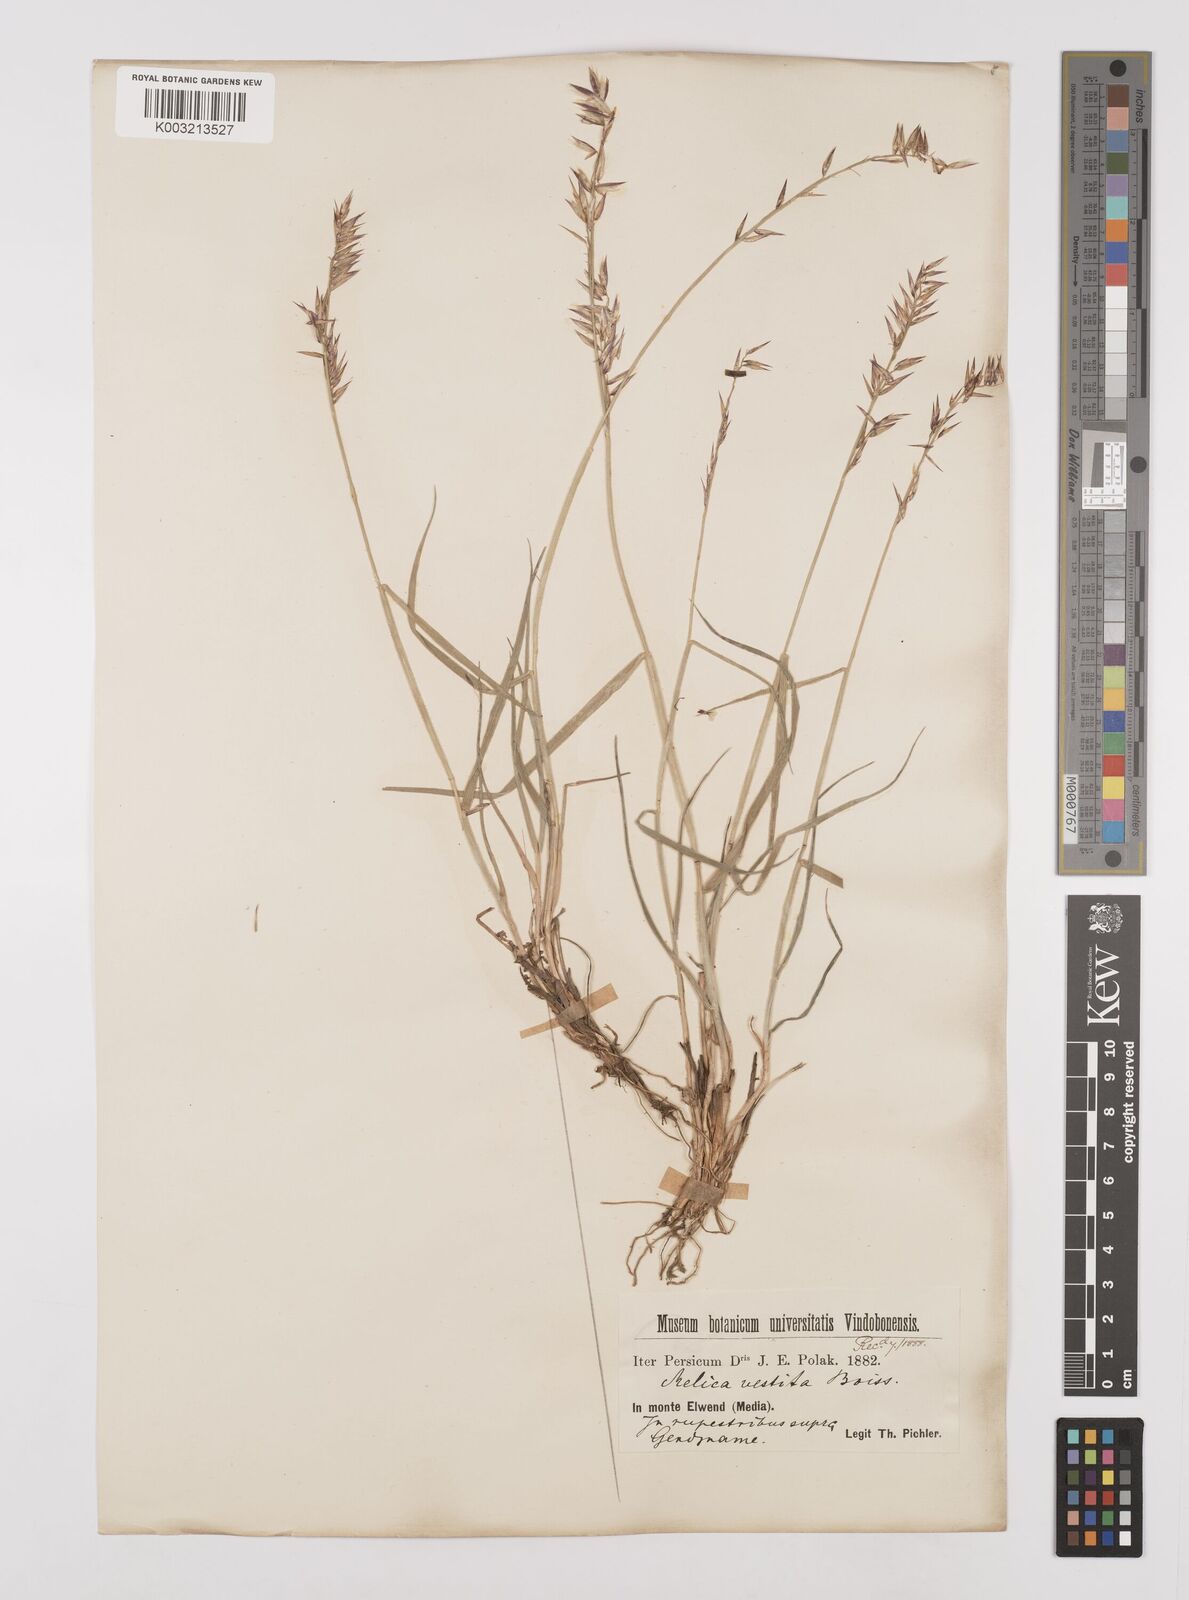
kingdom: Plantae
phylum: Tracheophyta
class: Liliopsida
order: Poales
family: Poaceae
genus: Melica
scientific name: Melica persica
